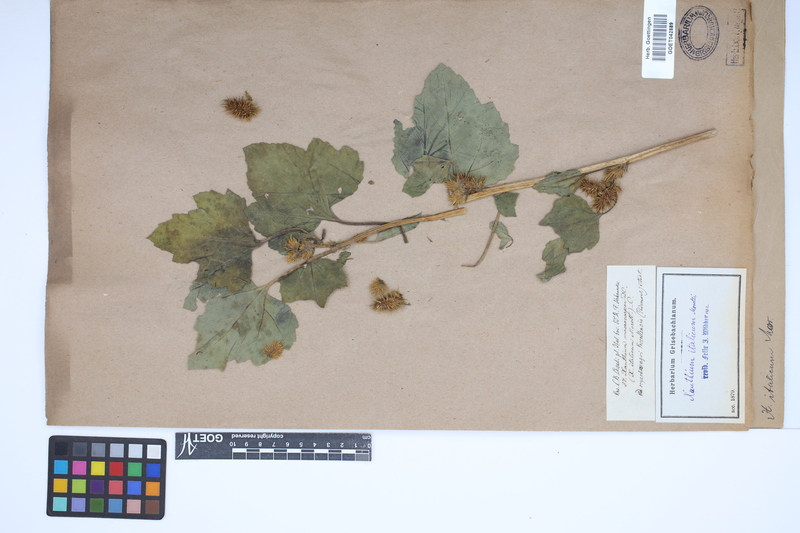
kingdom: Plantae
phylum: Tracheophyta
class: Magnoliopsida
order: Asterales
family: Asteraceae
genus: Xanthium
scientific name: Xanthium orientale
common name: Californian burr
